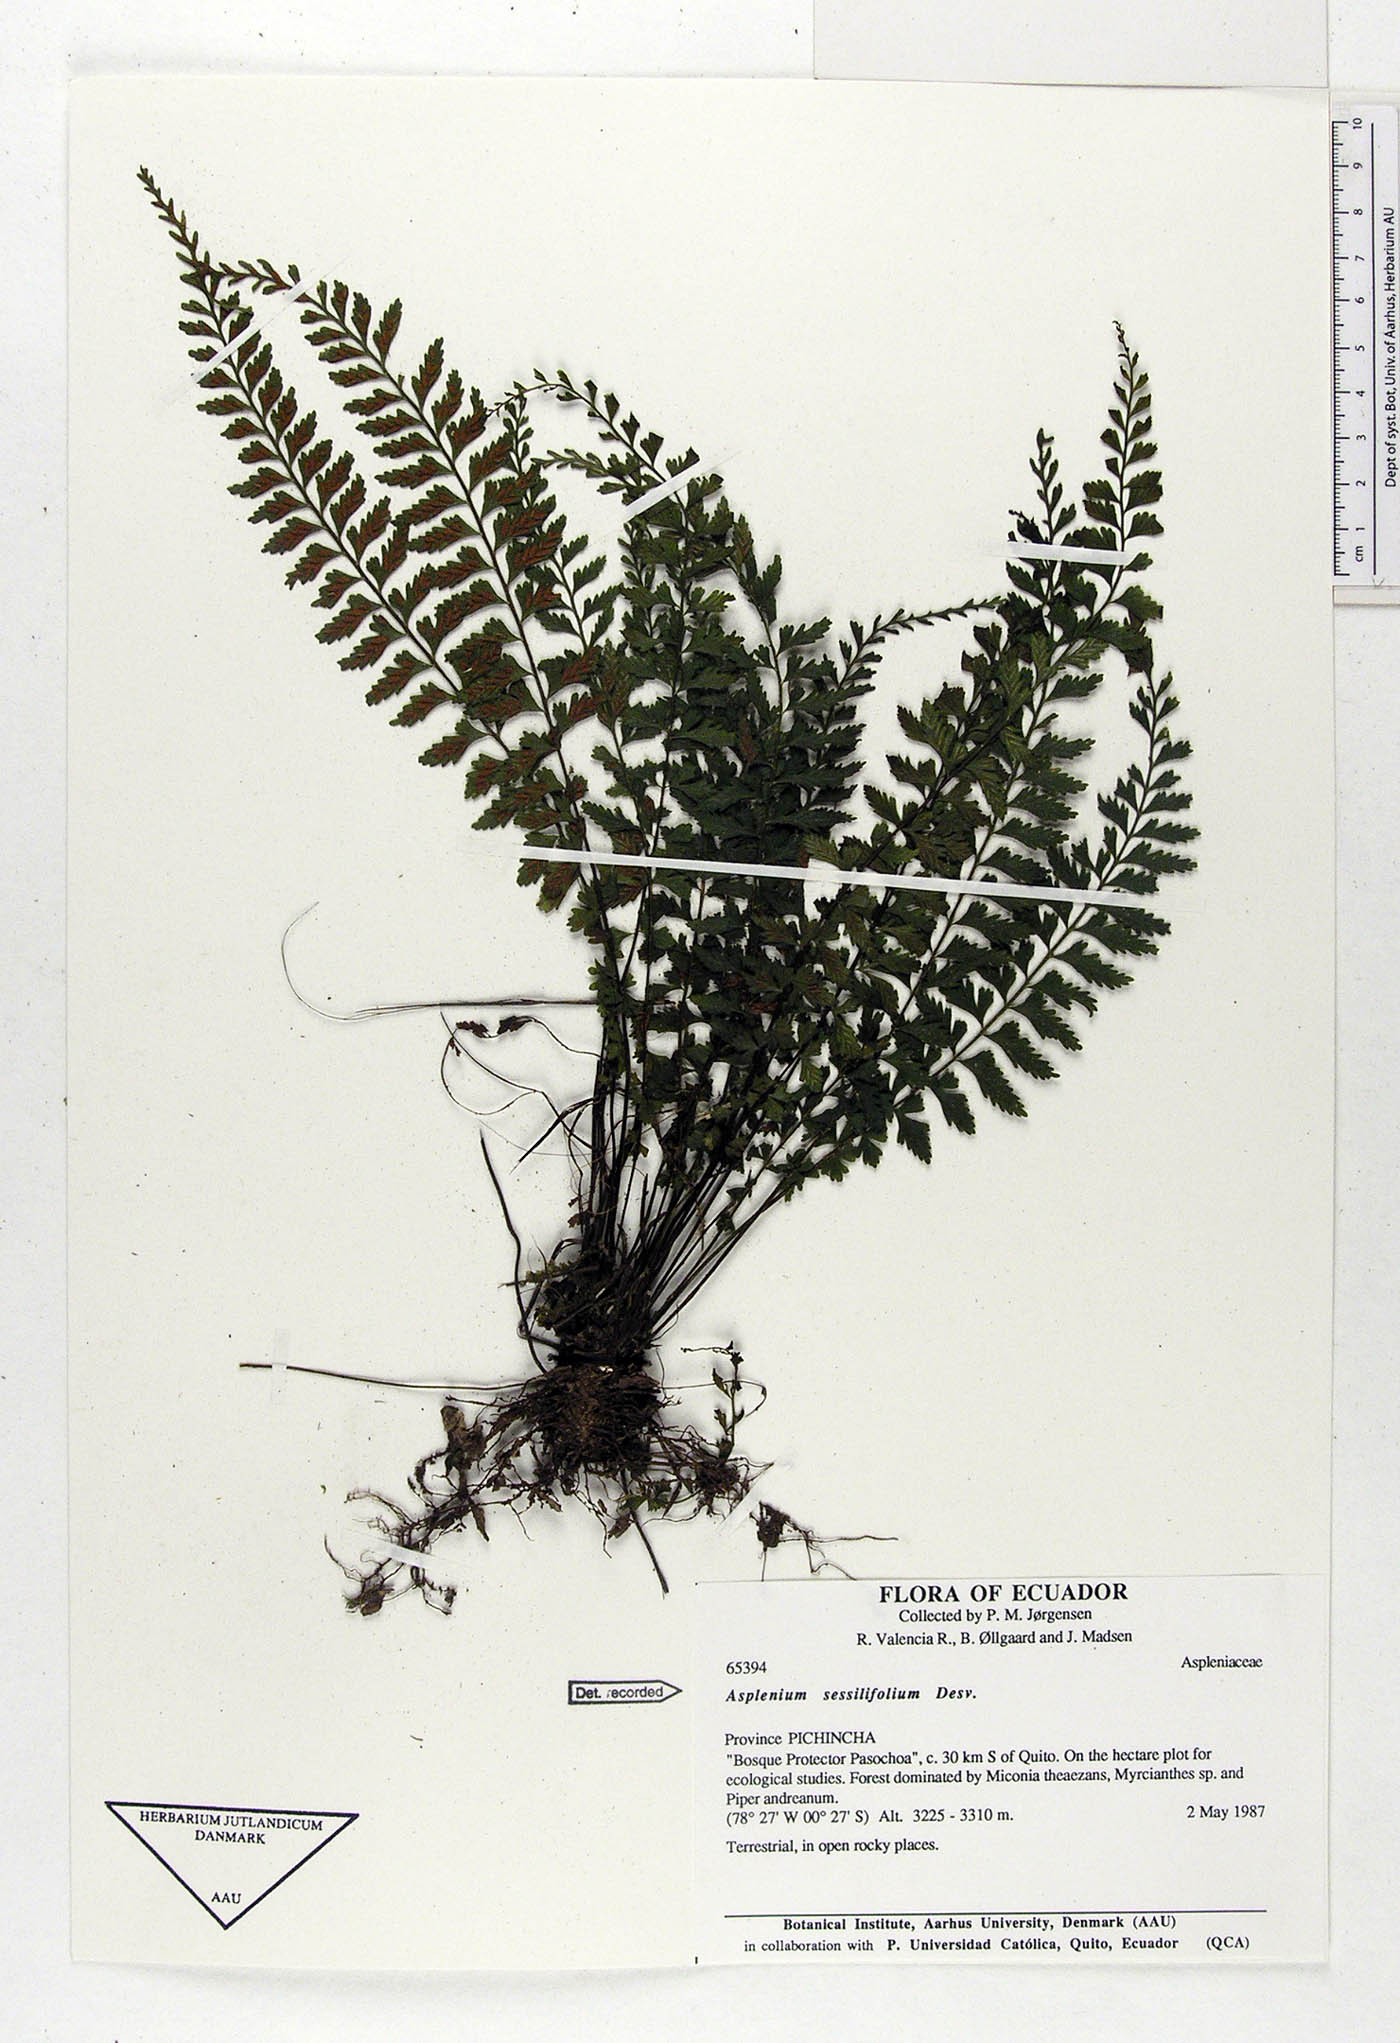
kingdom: Plantae
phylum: Tracheophyta
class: Polypodiopsida
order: Polypodiales
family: Aspleniaceae
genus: Asplenium
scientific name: Asplenium sessilifolium
